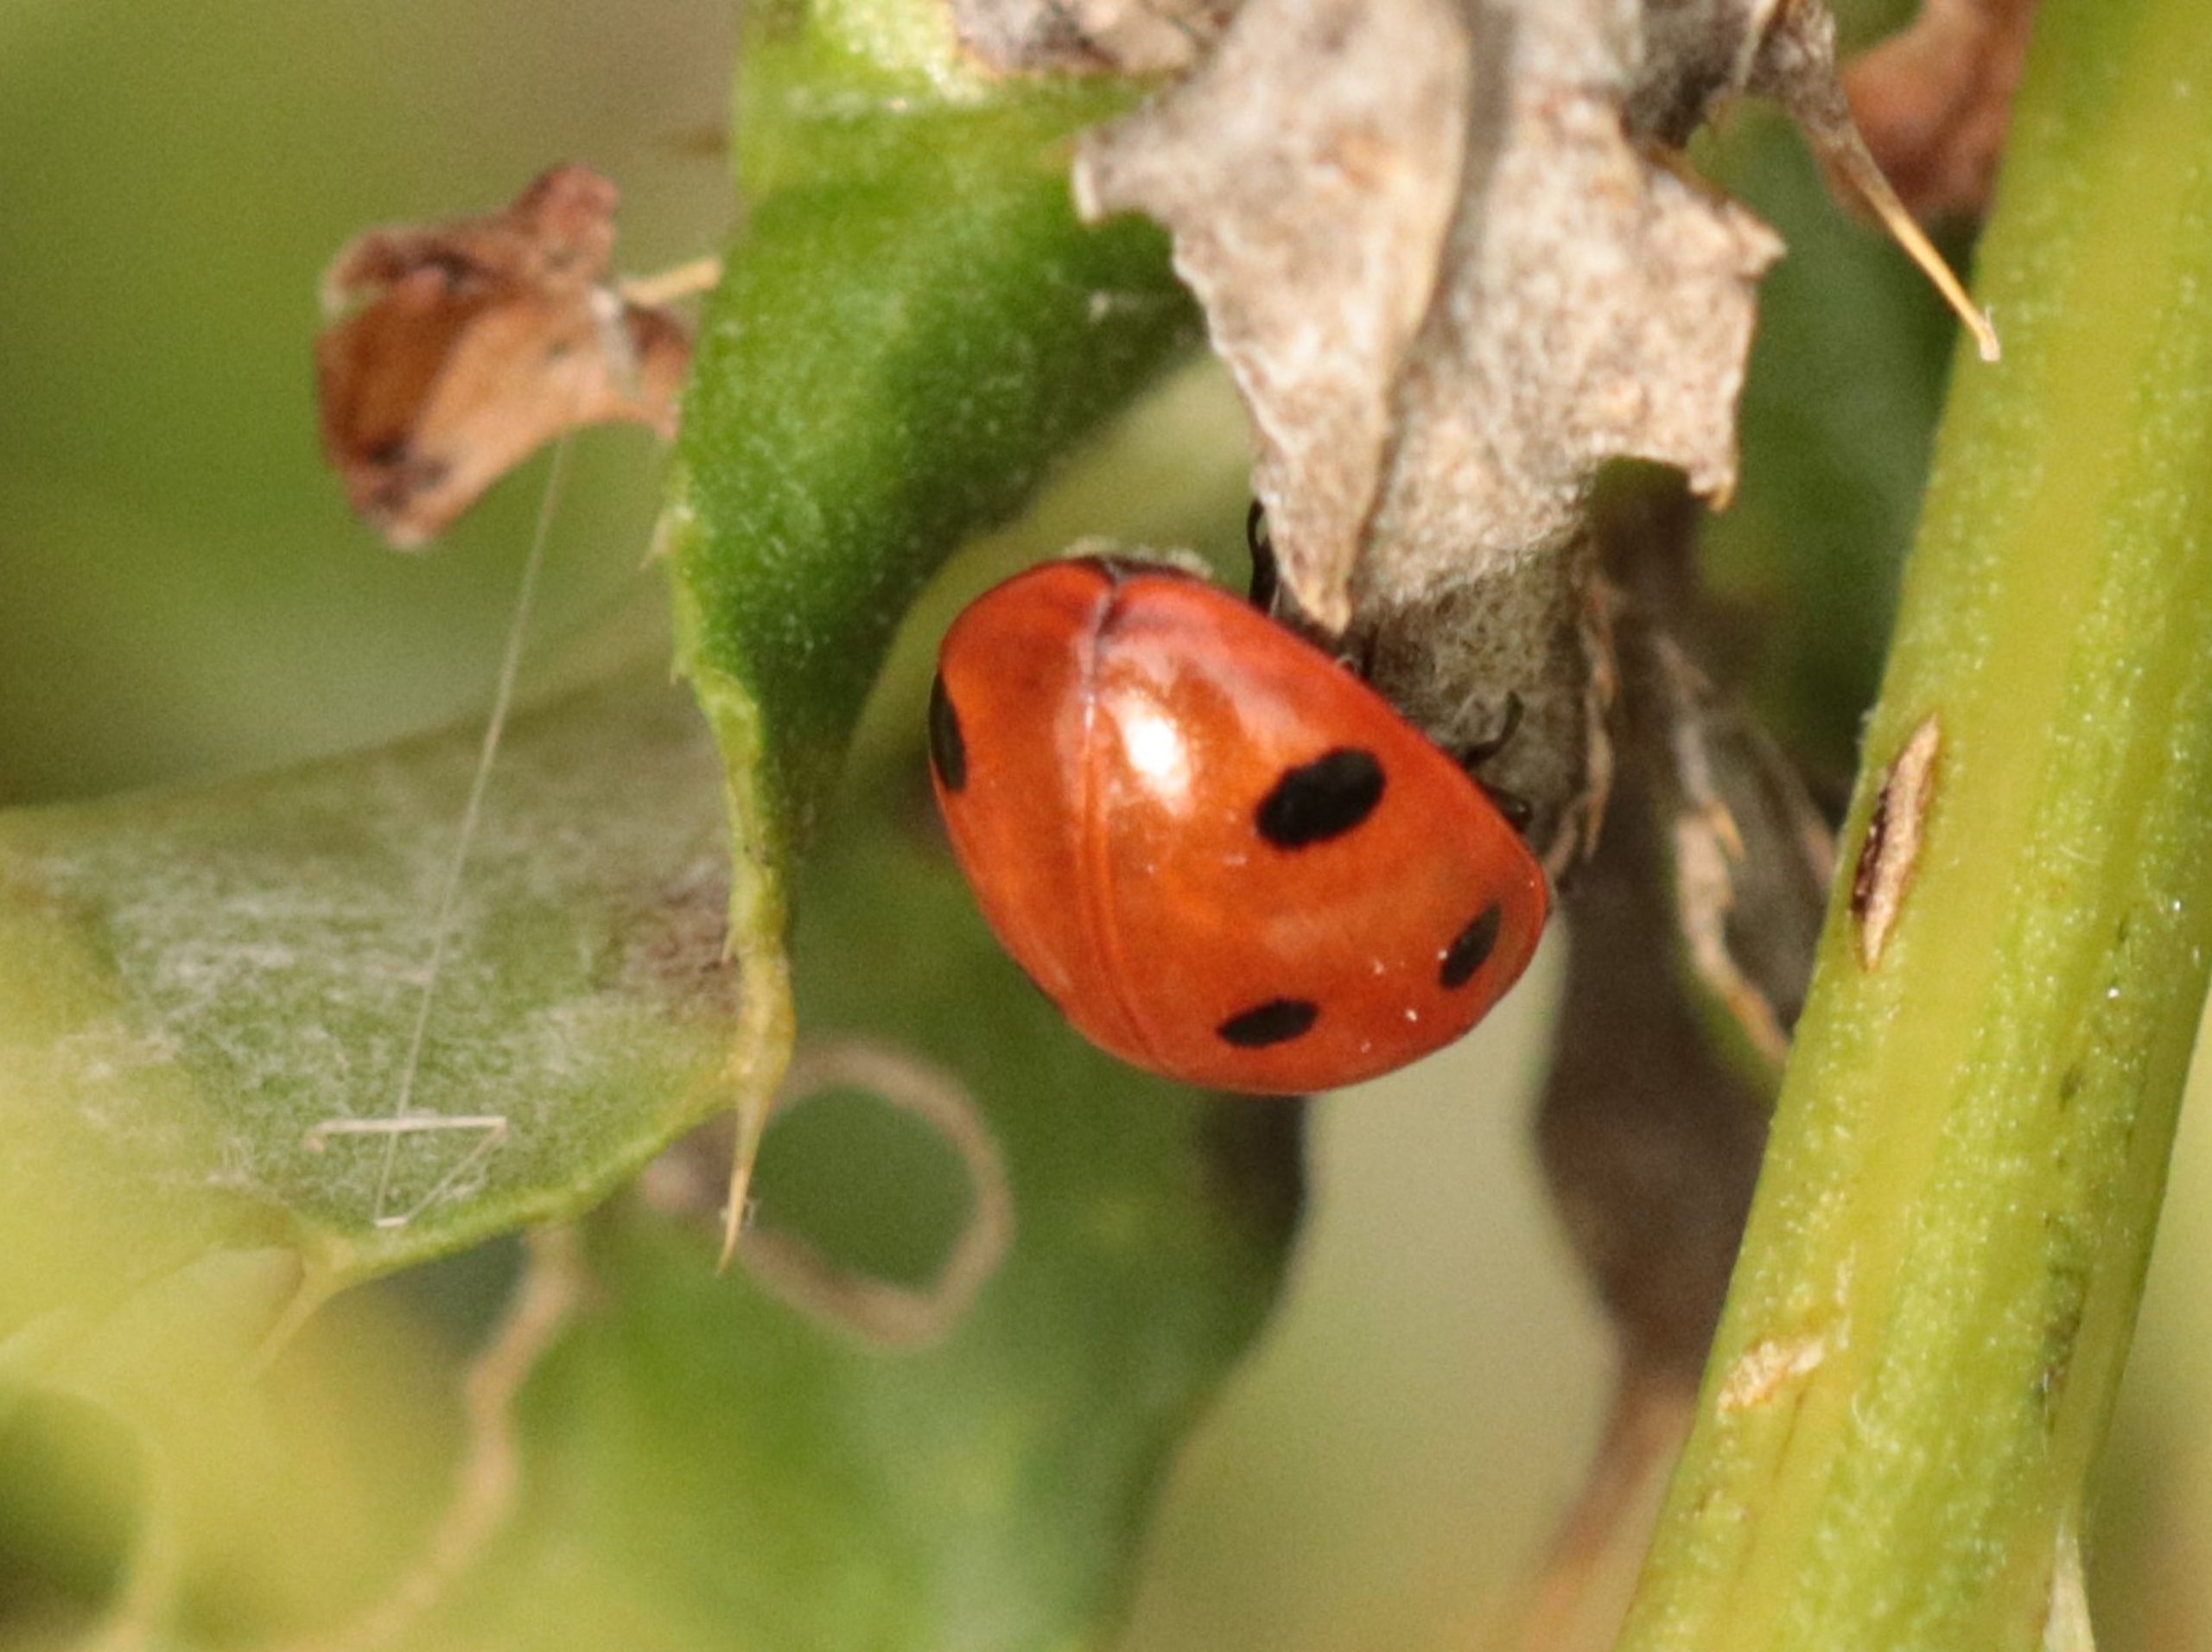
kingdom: Animalia
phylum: Arthropoda
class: Insecta
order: Coleoptera
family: Coccinellidae
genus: Coccinella
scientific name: Coccinella septempunctata
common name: Syvplettet mariehøne
